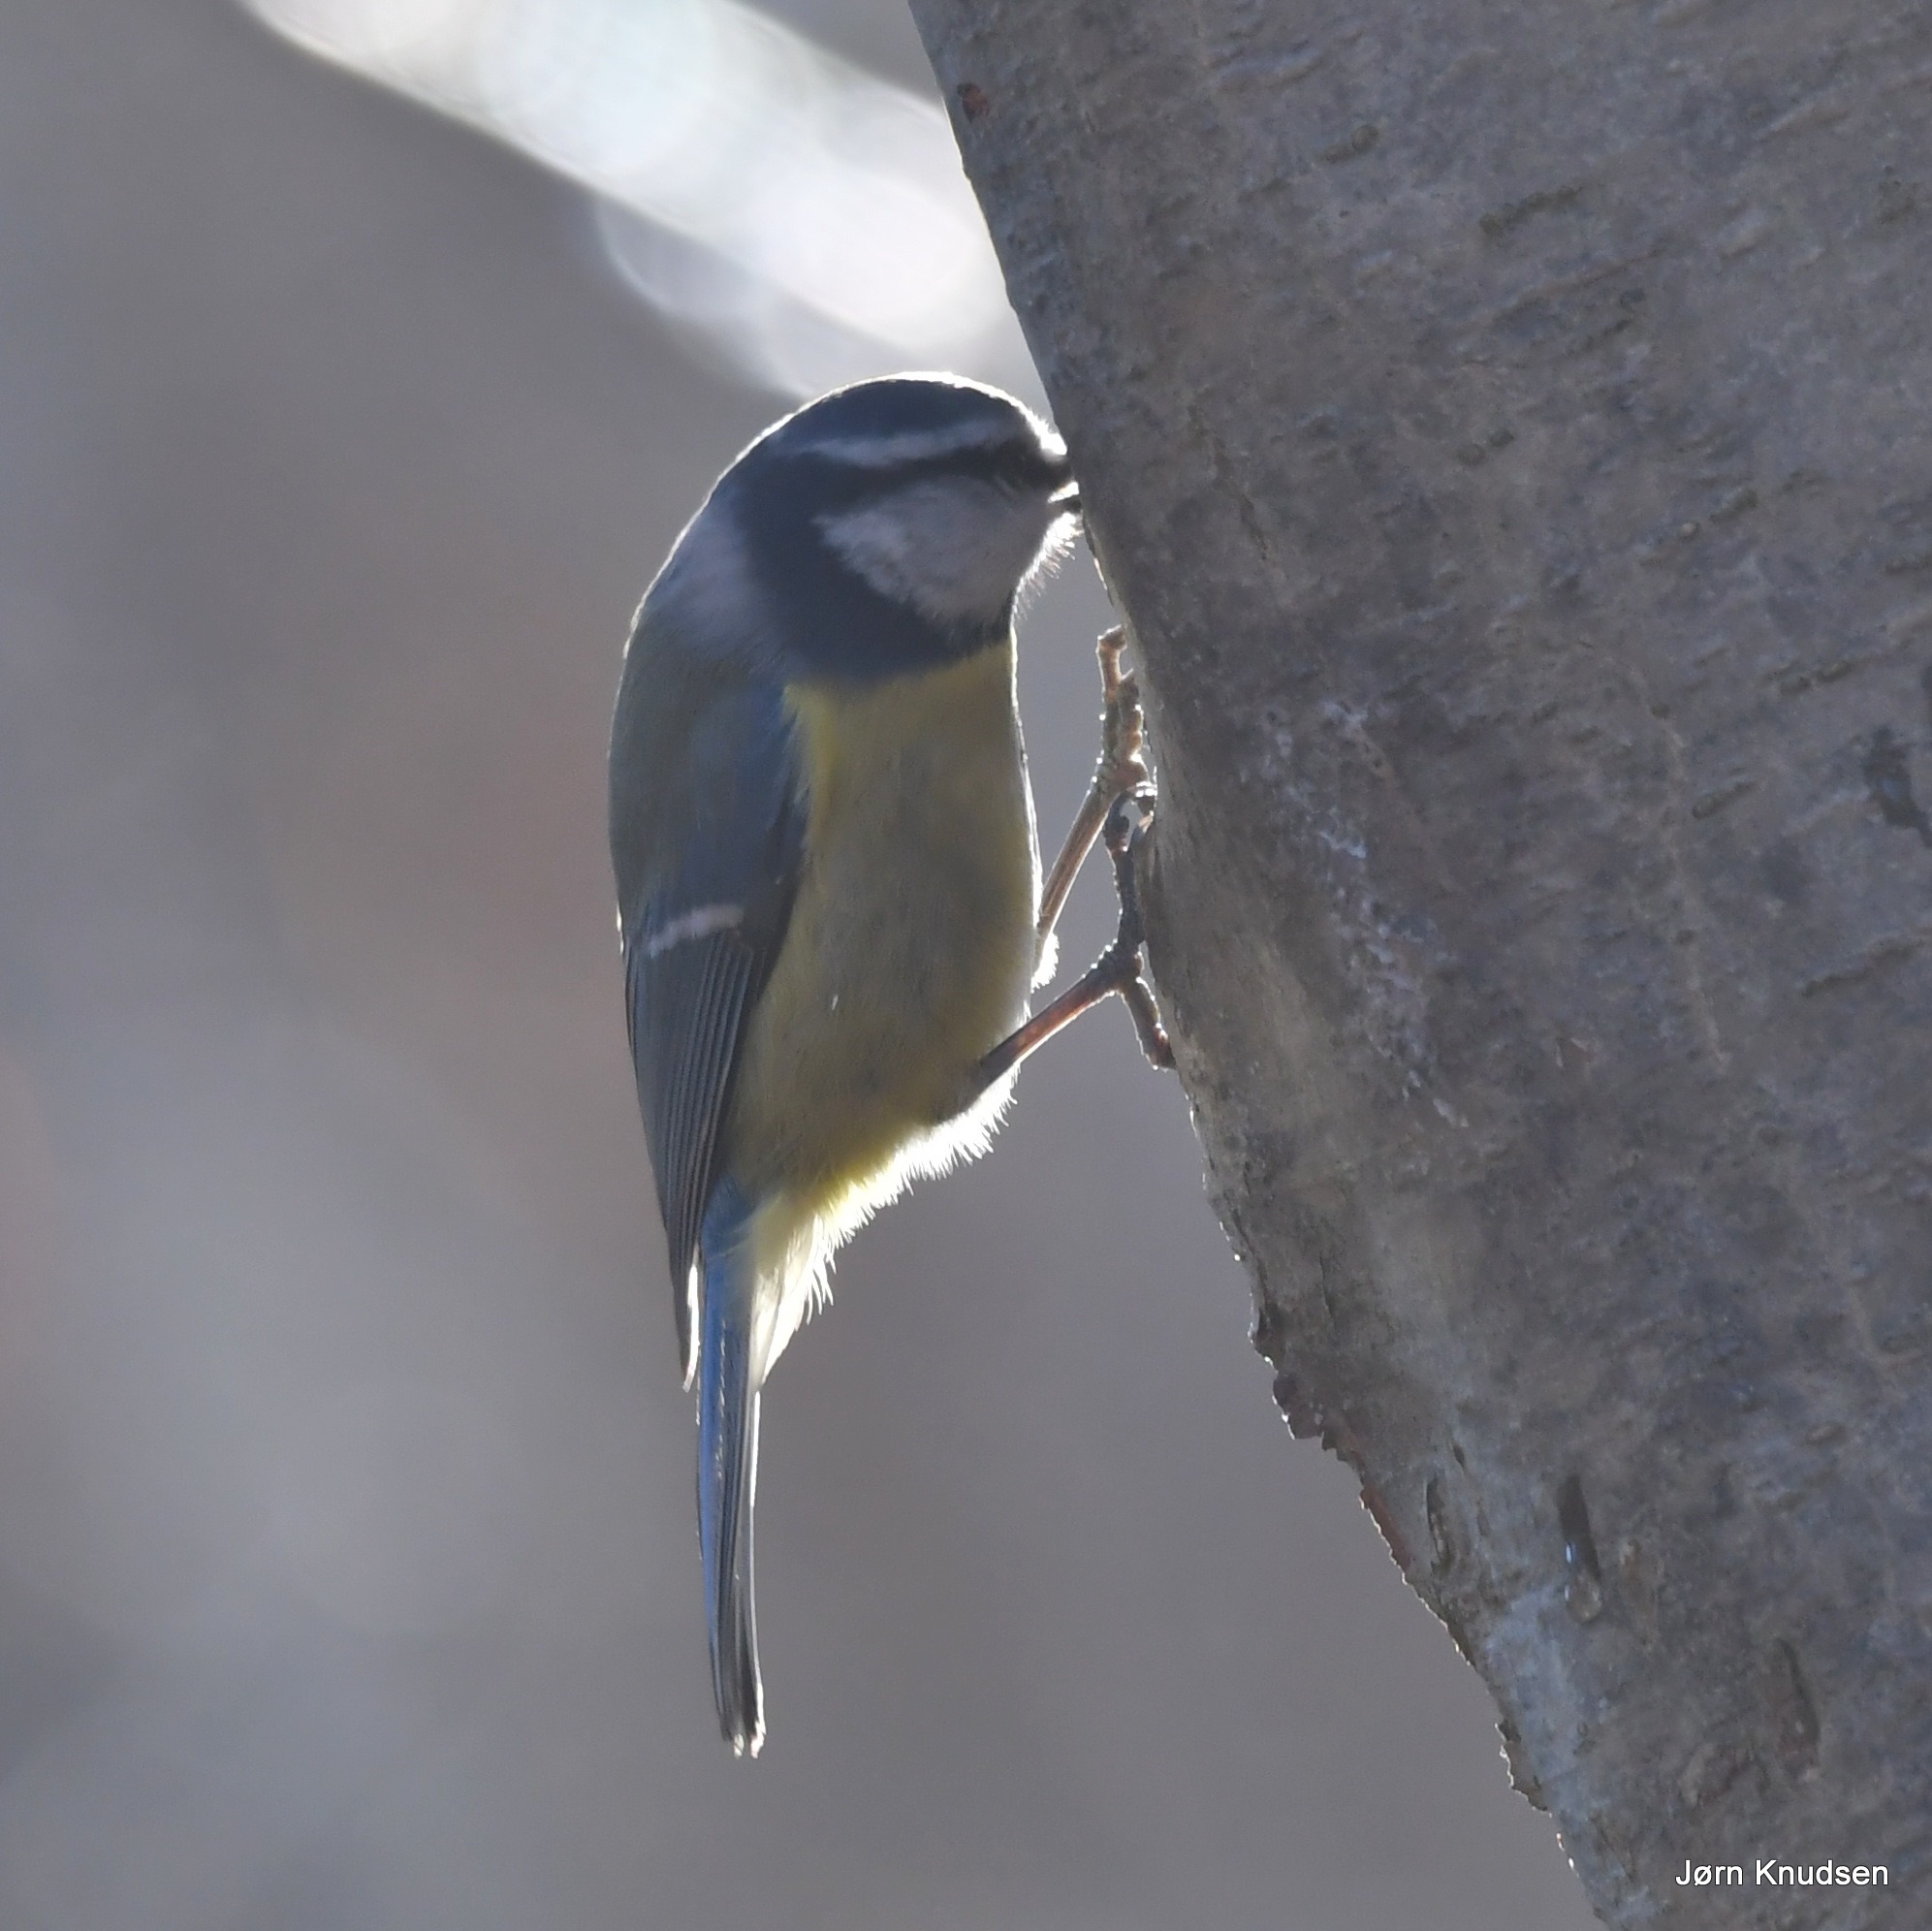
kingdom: Animalia
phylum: Chordata
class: Aves
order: Passeriformes
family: Paridae
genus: Cyanistes
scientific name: Cyanistes caeruleus
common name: Blåmejse
